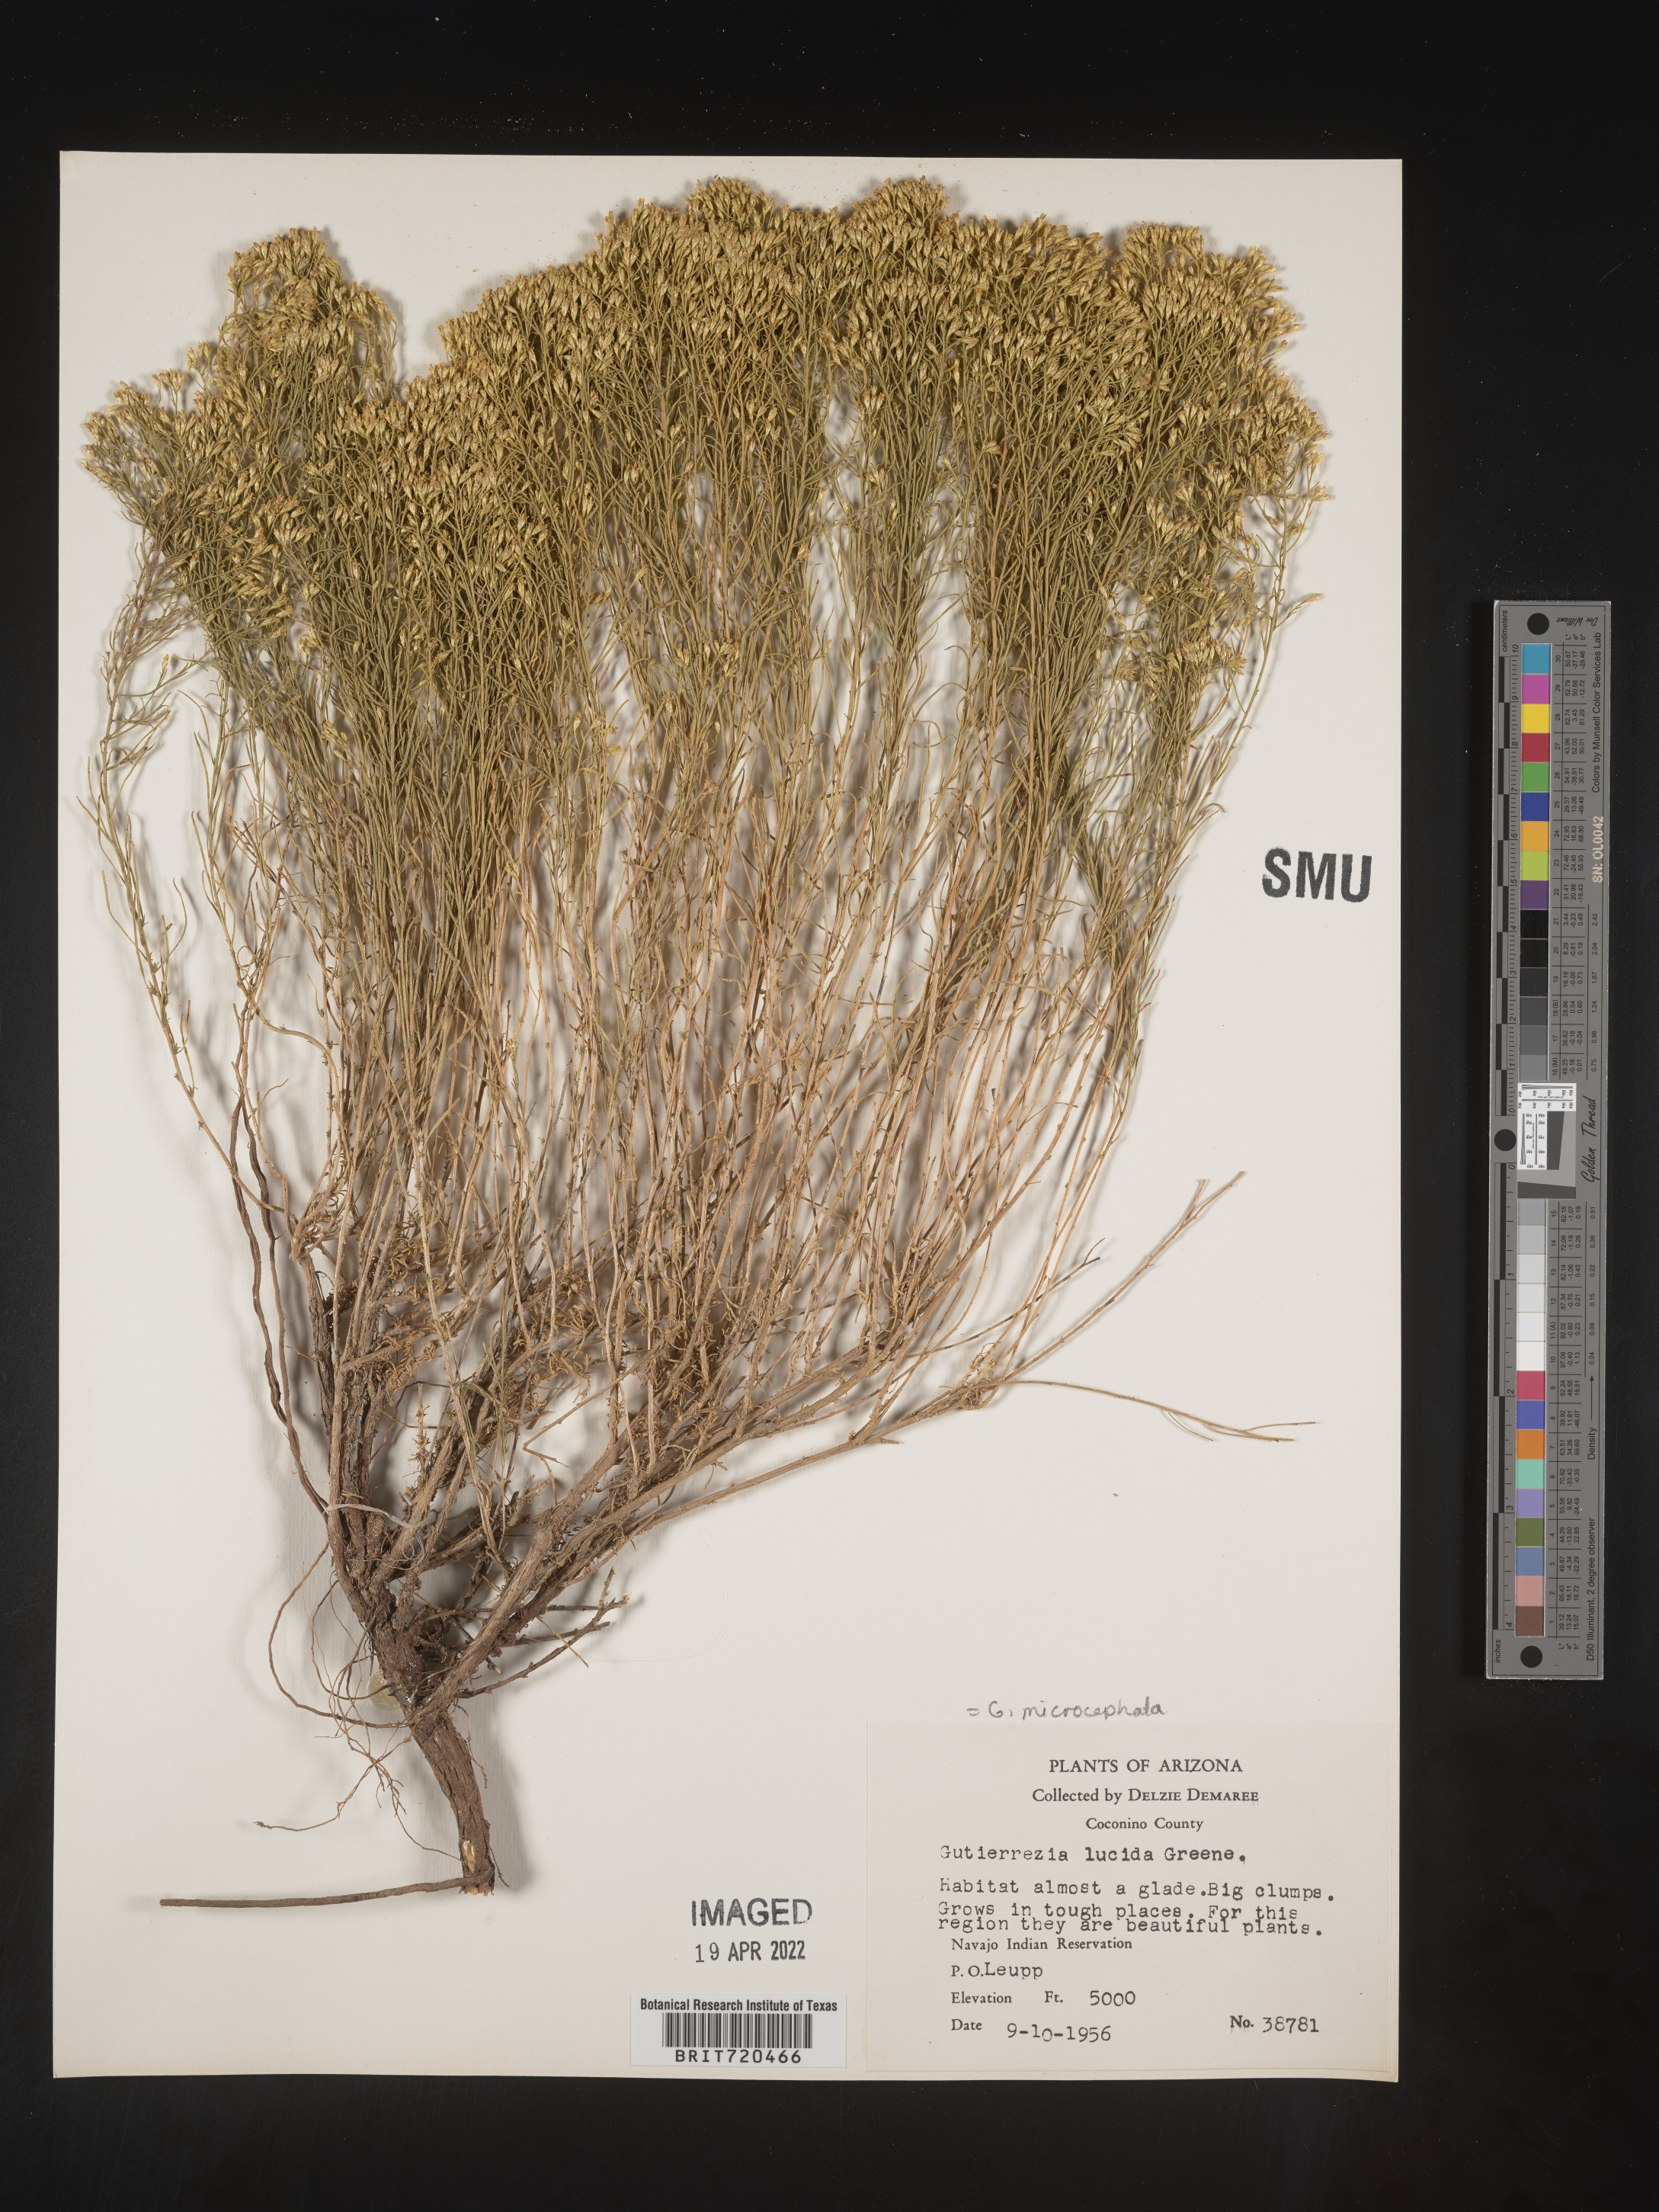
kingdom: Plantae
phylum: Tracheophyta
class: Magnoliopsida
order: Asterales
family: Asteraceae
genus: Gutierrezia
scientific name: Gutierrezia microcephala
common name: Thread snakeweed
